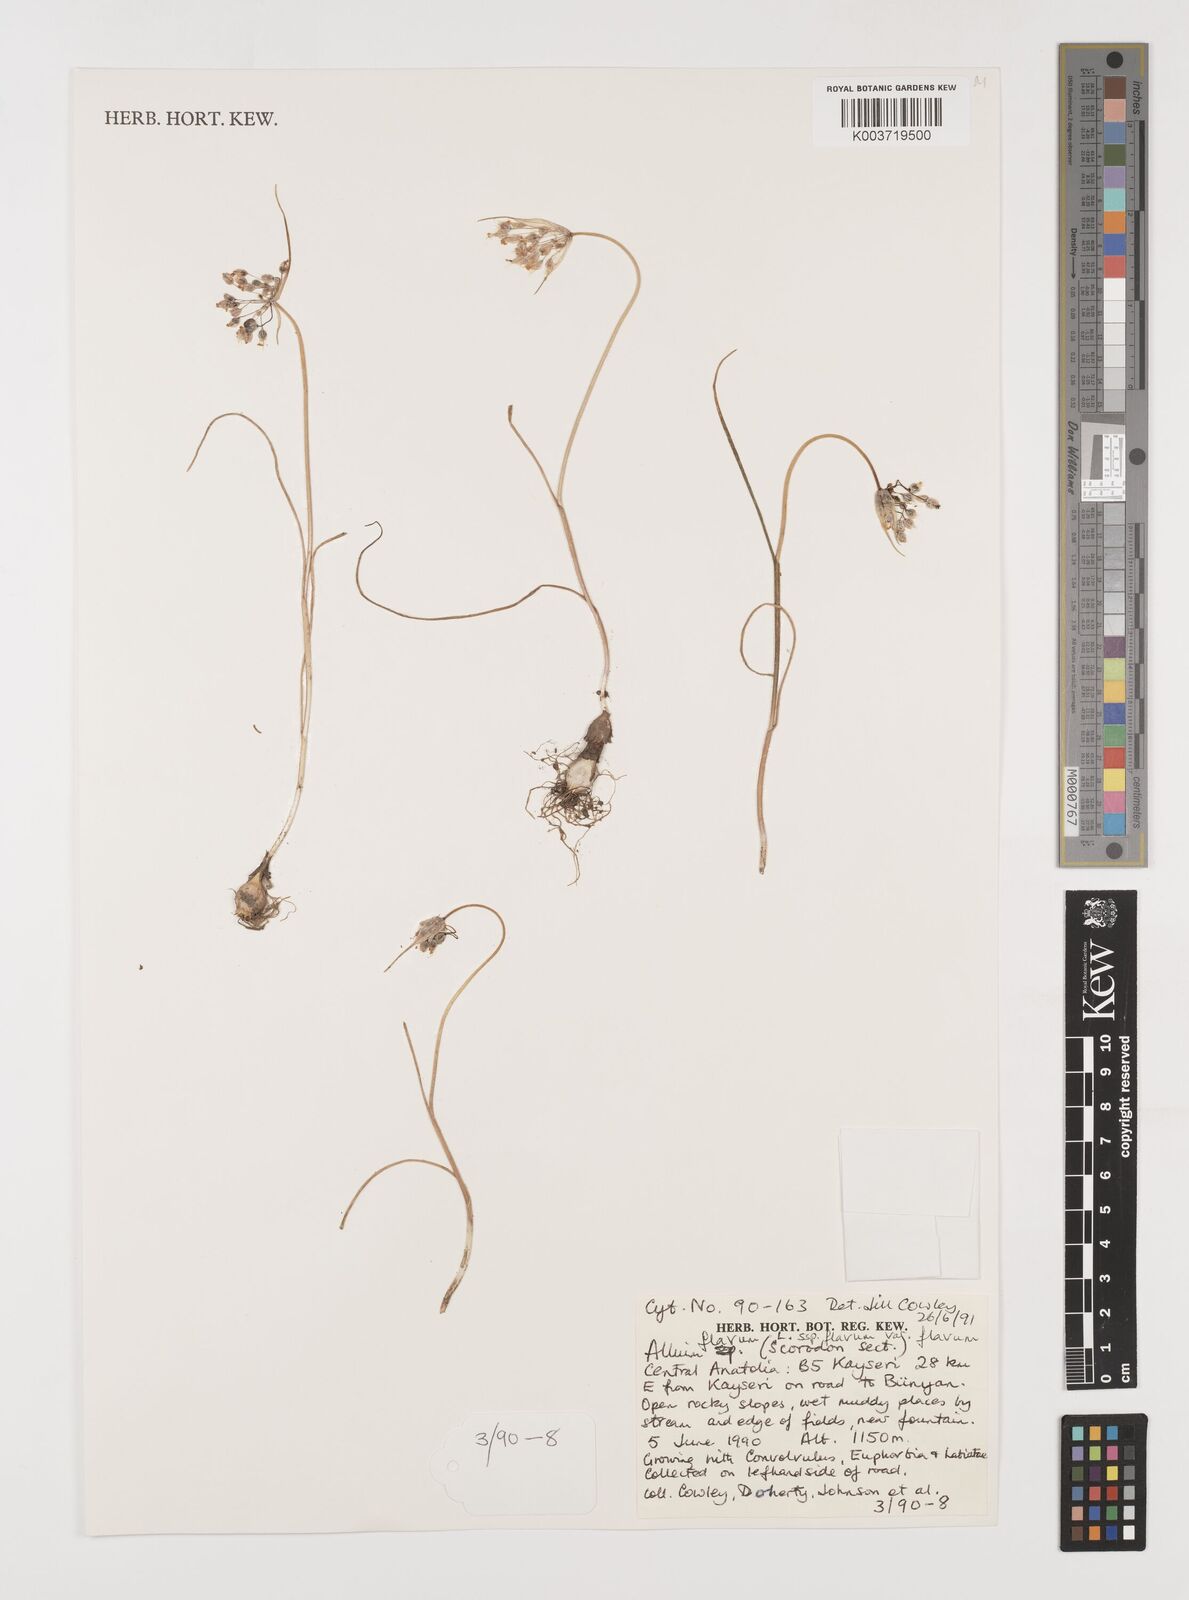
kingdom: Plantae
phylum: Tracheophyta
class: Liliopsida
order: Asparagales
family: Amaryllidaceae
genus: Allium
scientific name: Allium flavum
